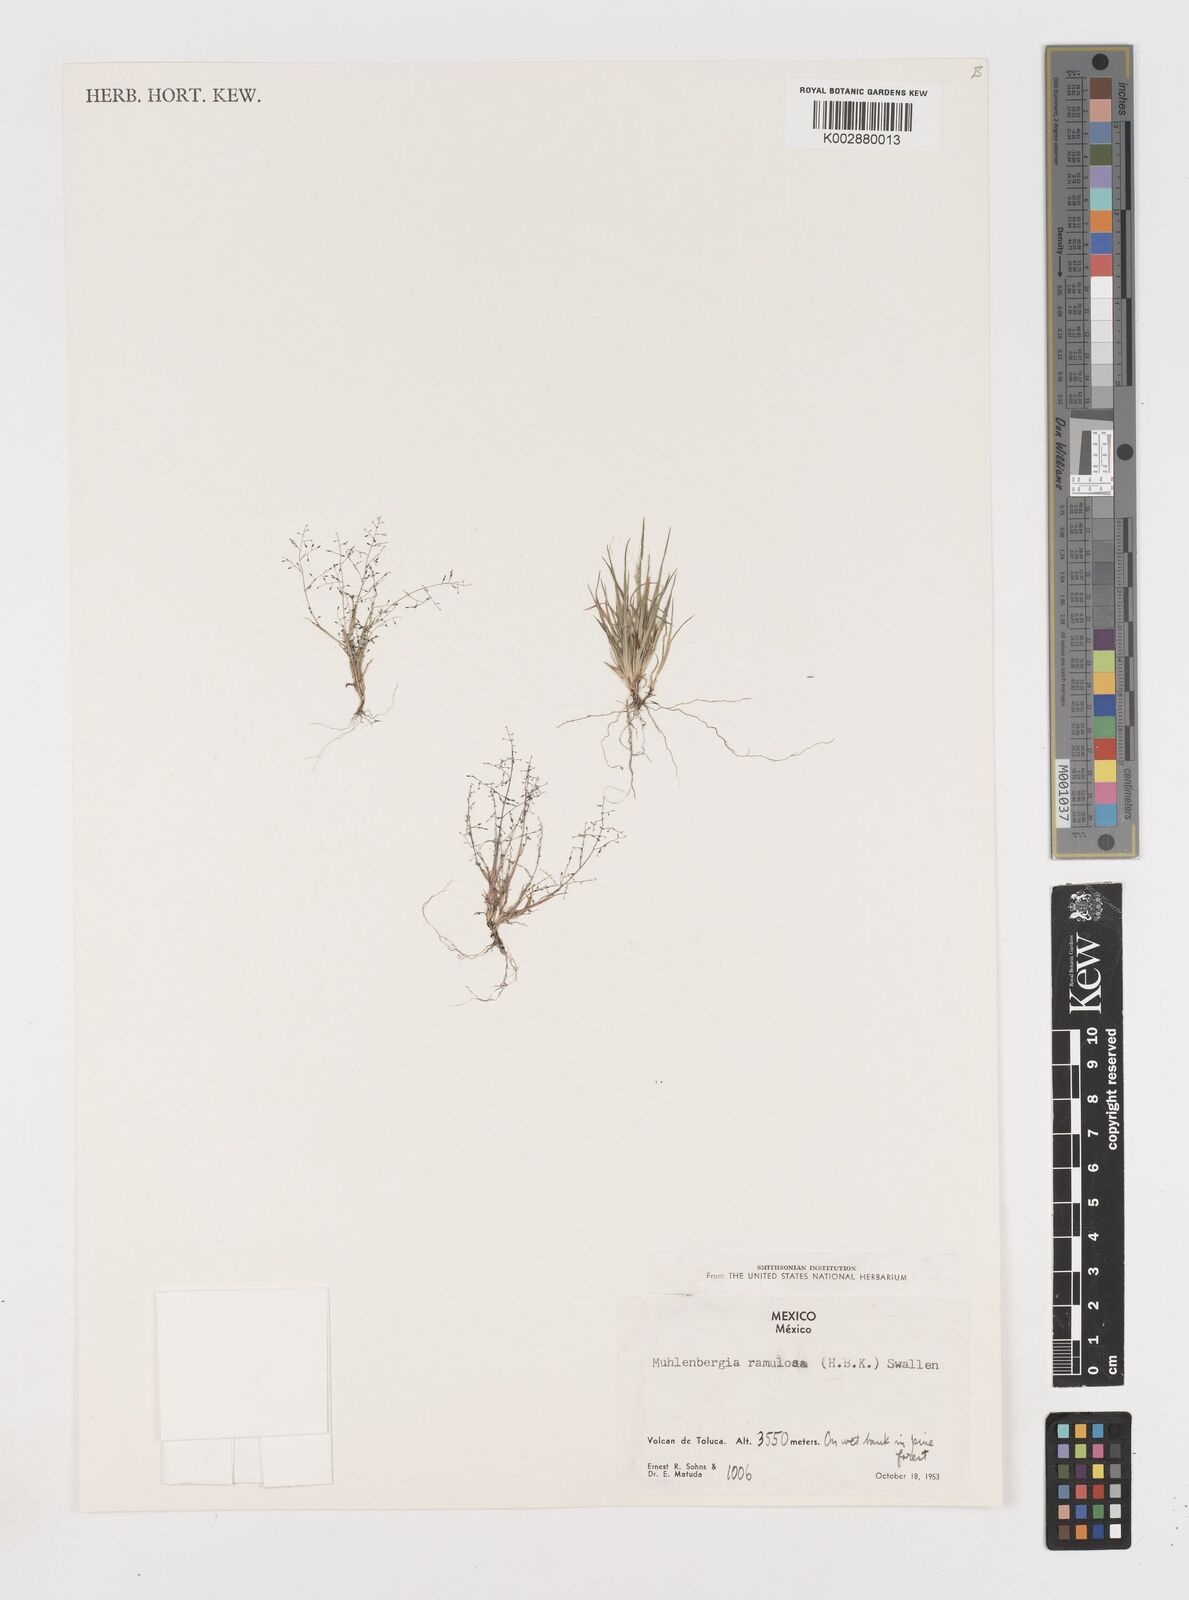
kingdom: Plantae
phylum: Tracheophyta
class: Liliopsida
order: Poales
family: Poaceae
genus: Muhlenbergia
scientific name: Muhlenbergia ramulosa
